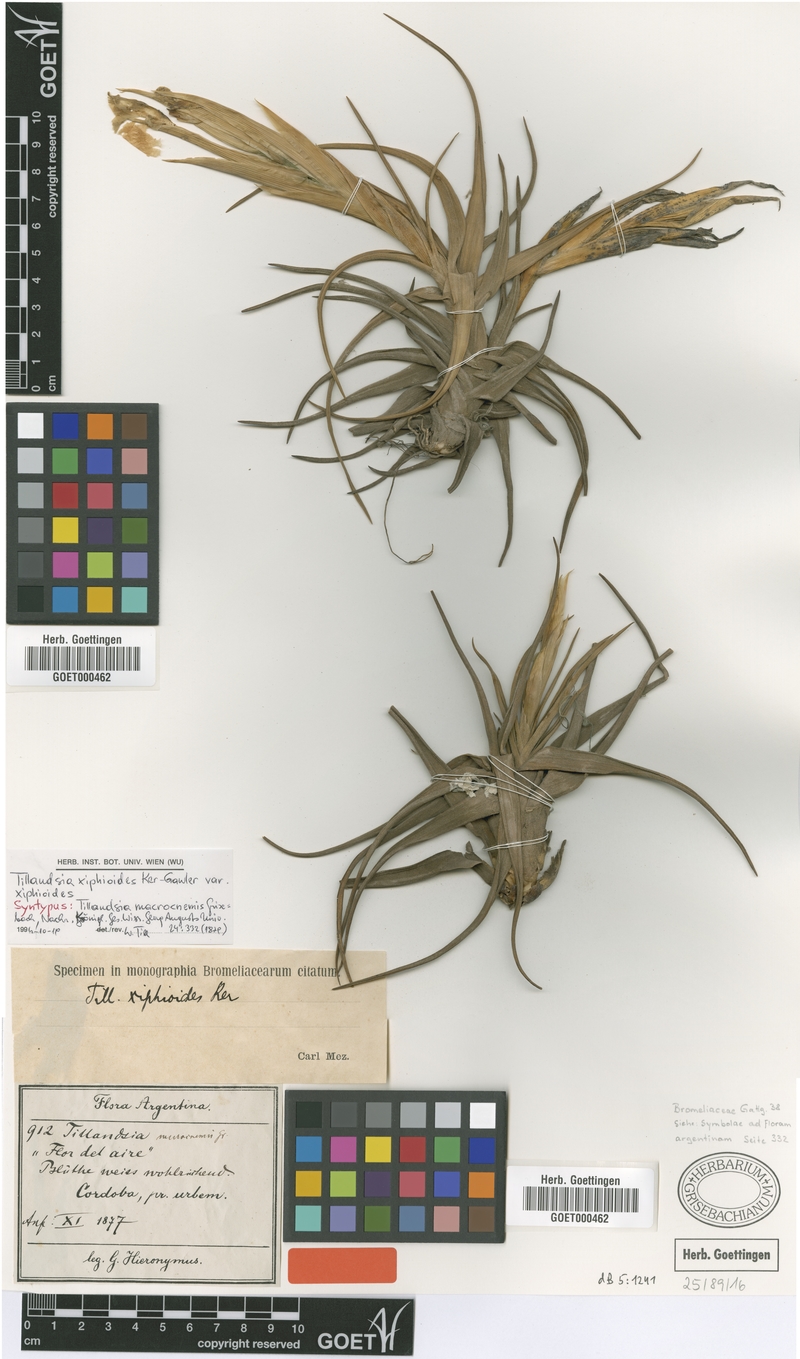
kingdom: Plantae
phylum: Tracheophyta
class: Liliopsida
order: Poales
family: Bromeliaceae
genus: Tillandsia
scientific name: Tillandsia xiphioides
